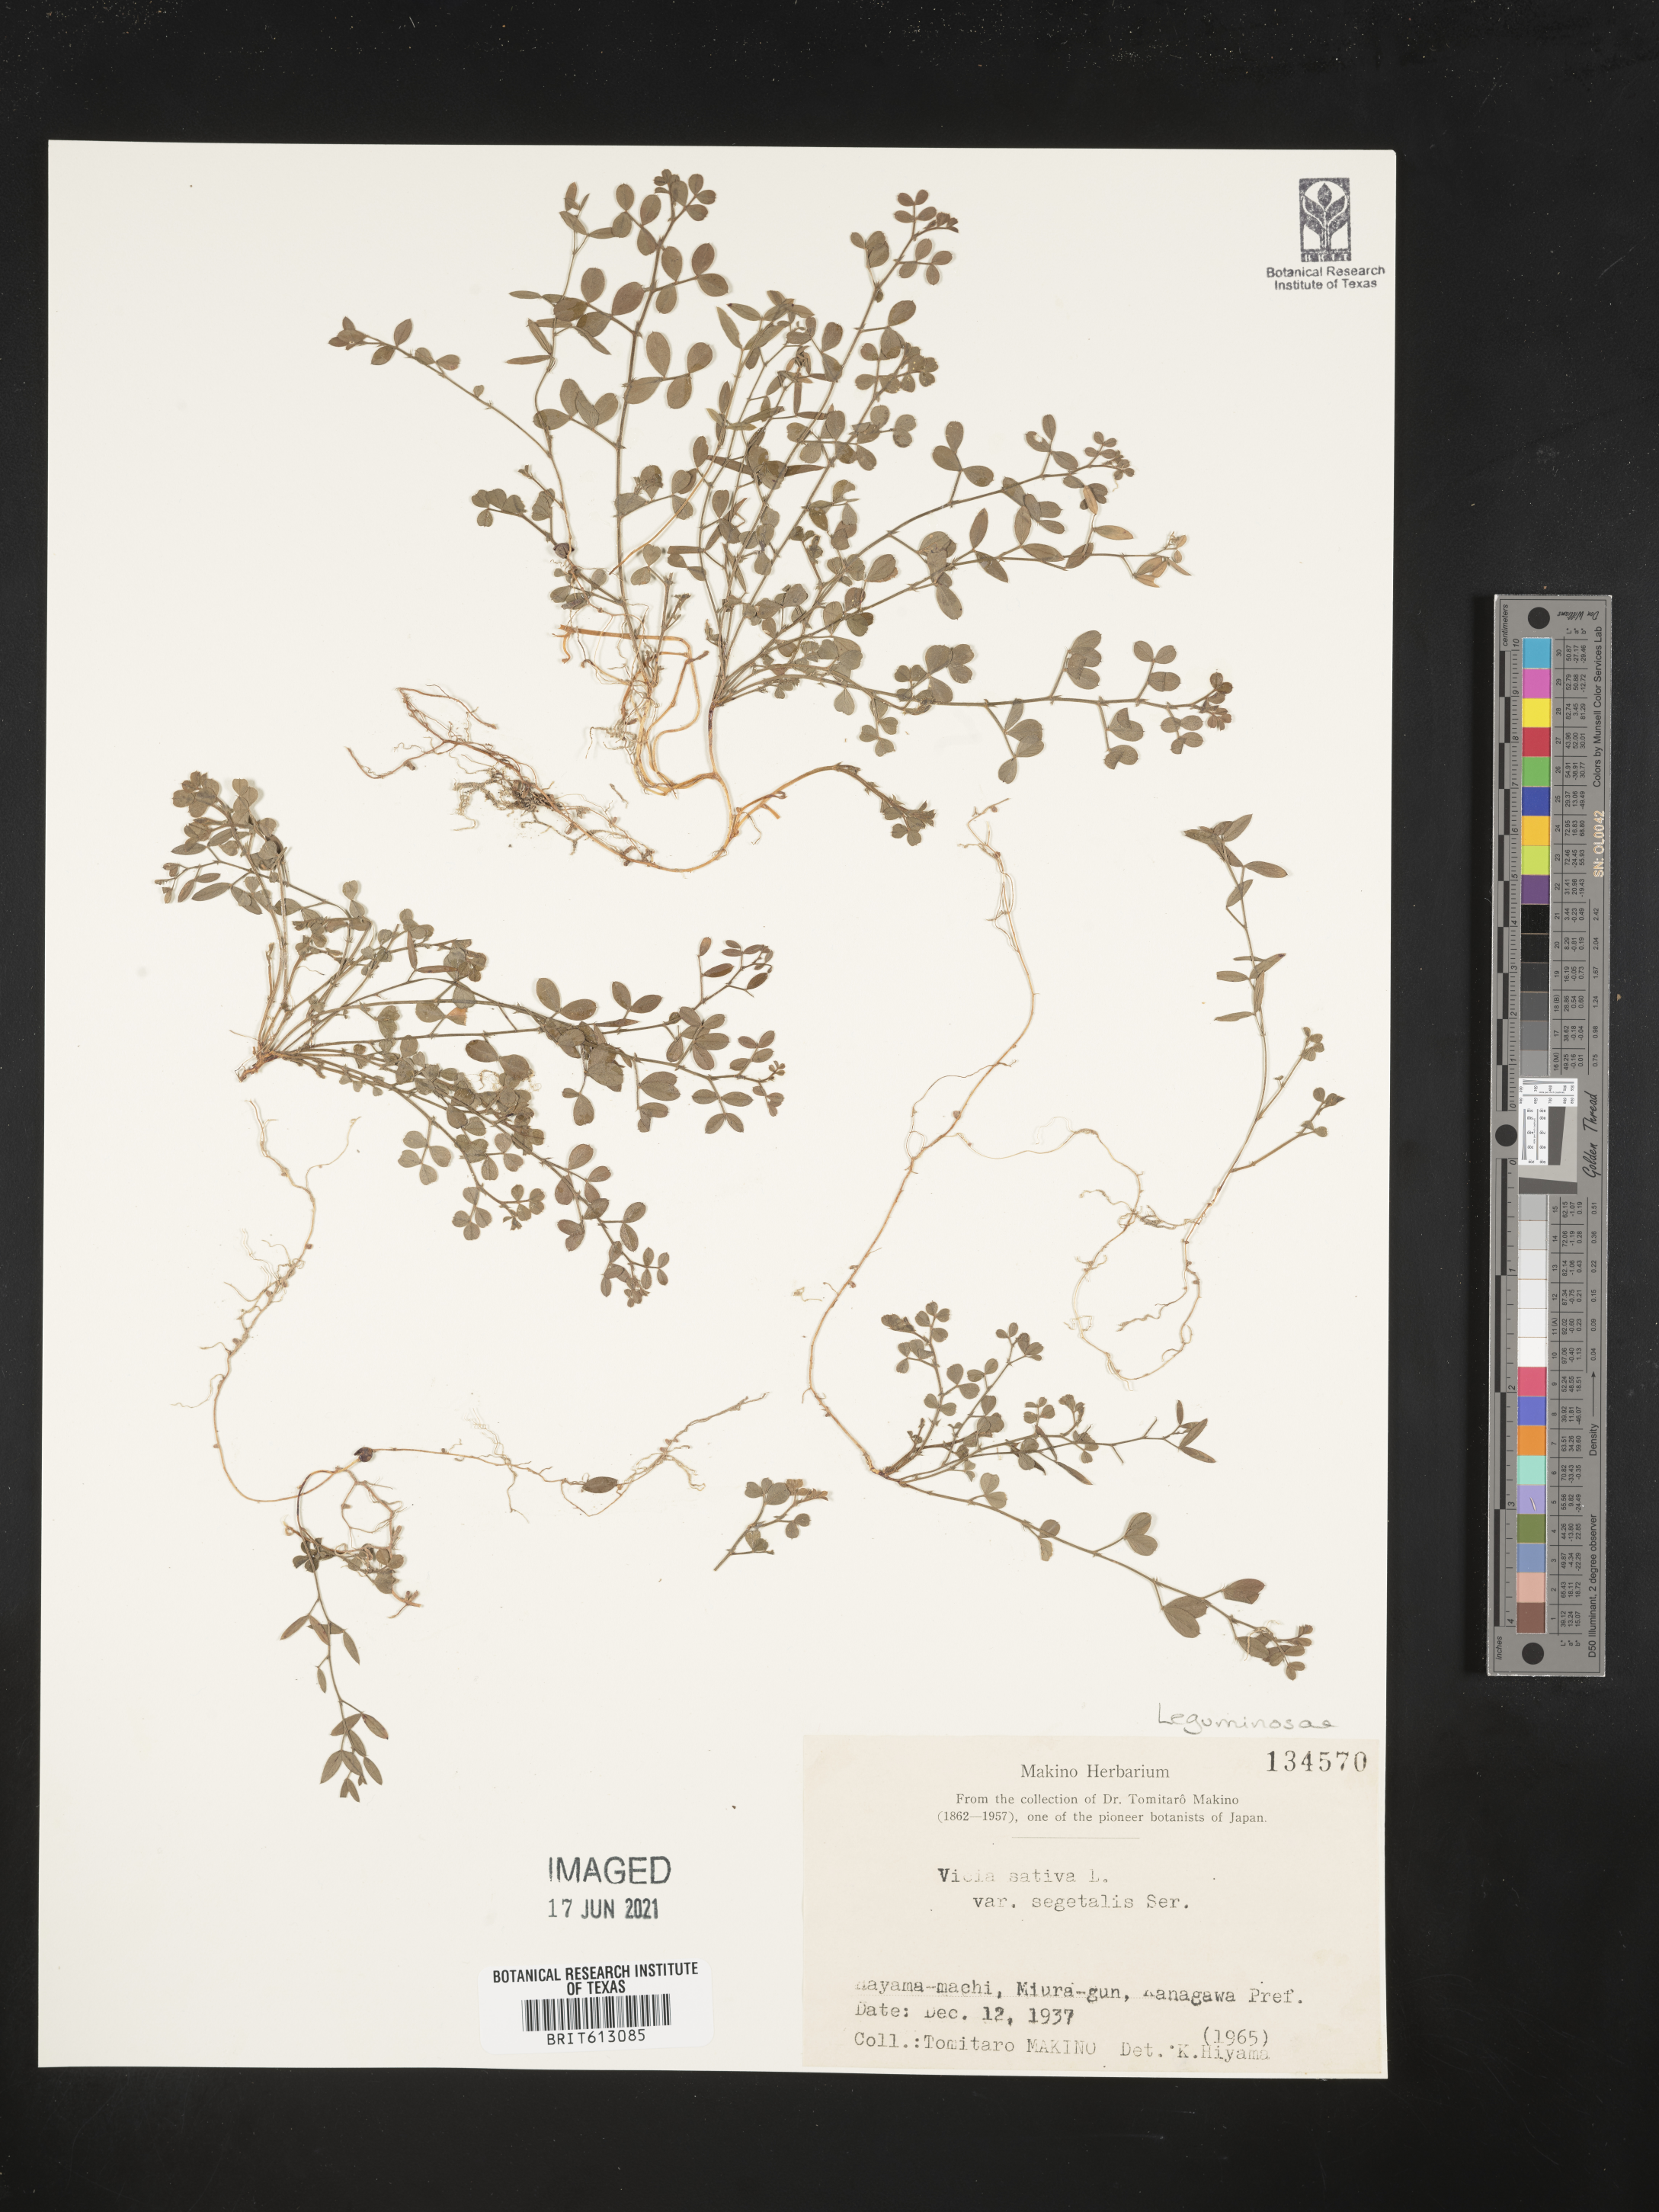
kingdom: Plantae
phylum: Tracheophyta
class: Magnoliopsida
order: Fabales
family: Fabaceae
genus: Vicia
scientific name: Vicia sativa
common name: Garden vetch
